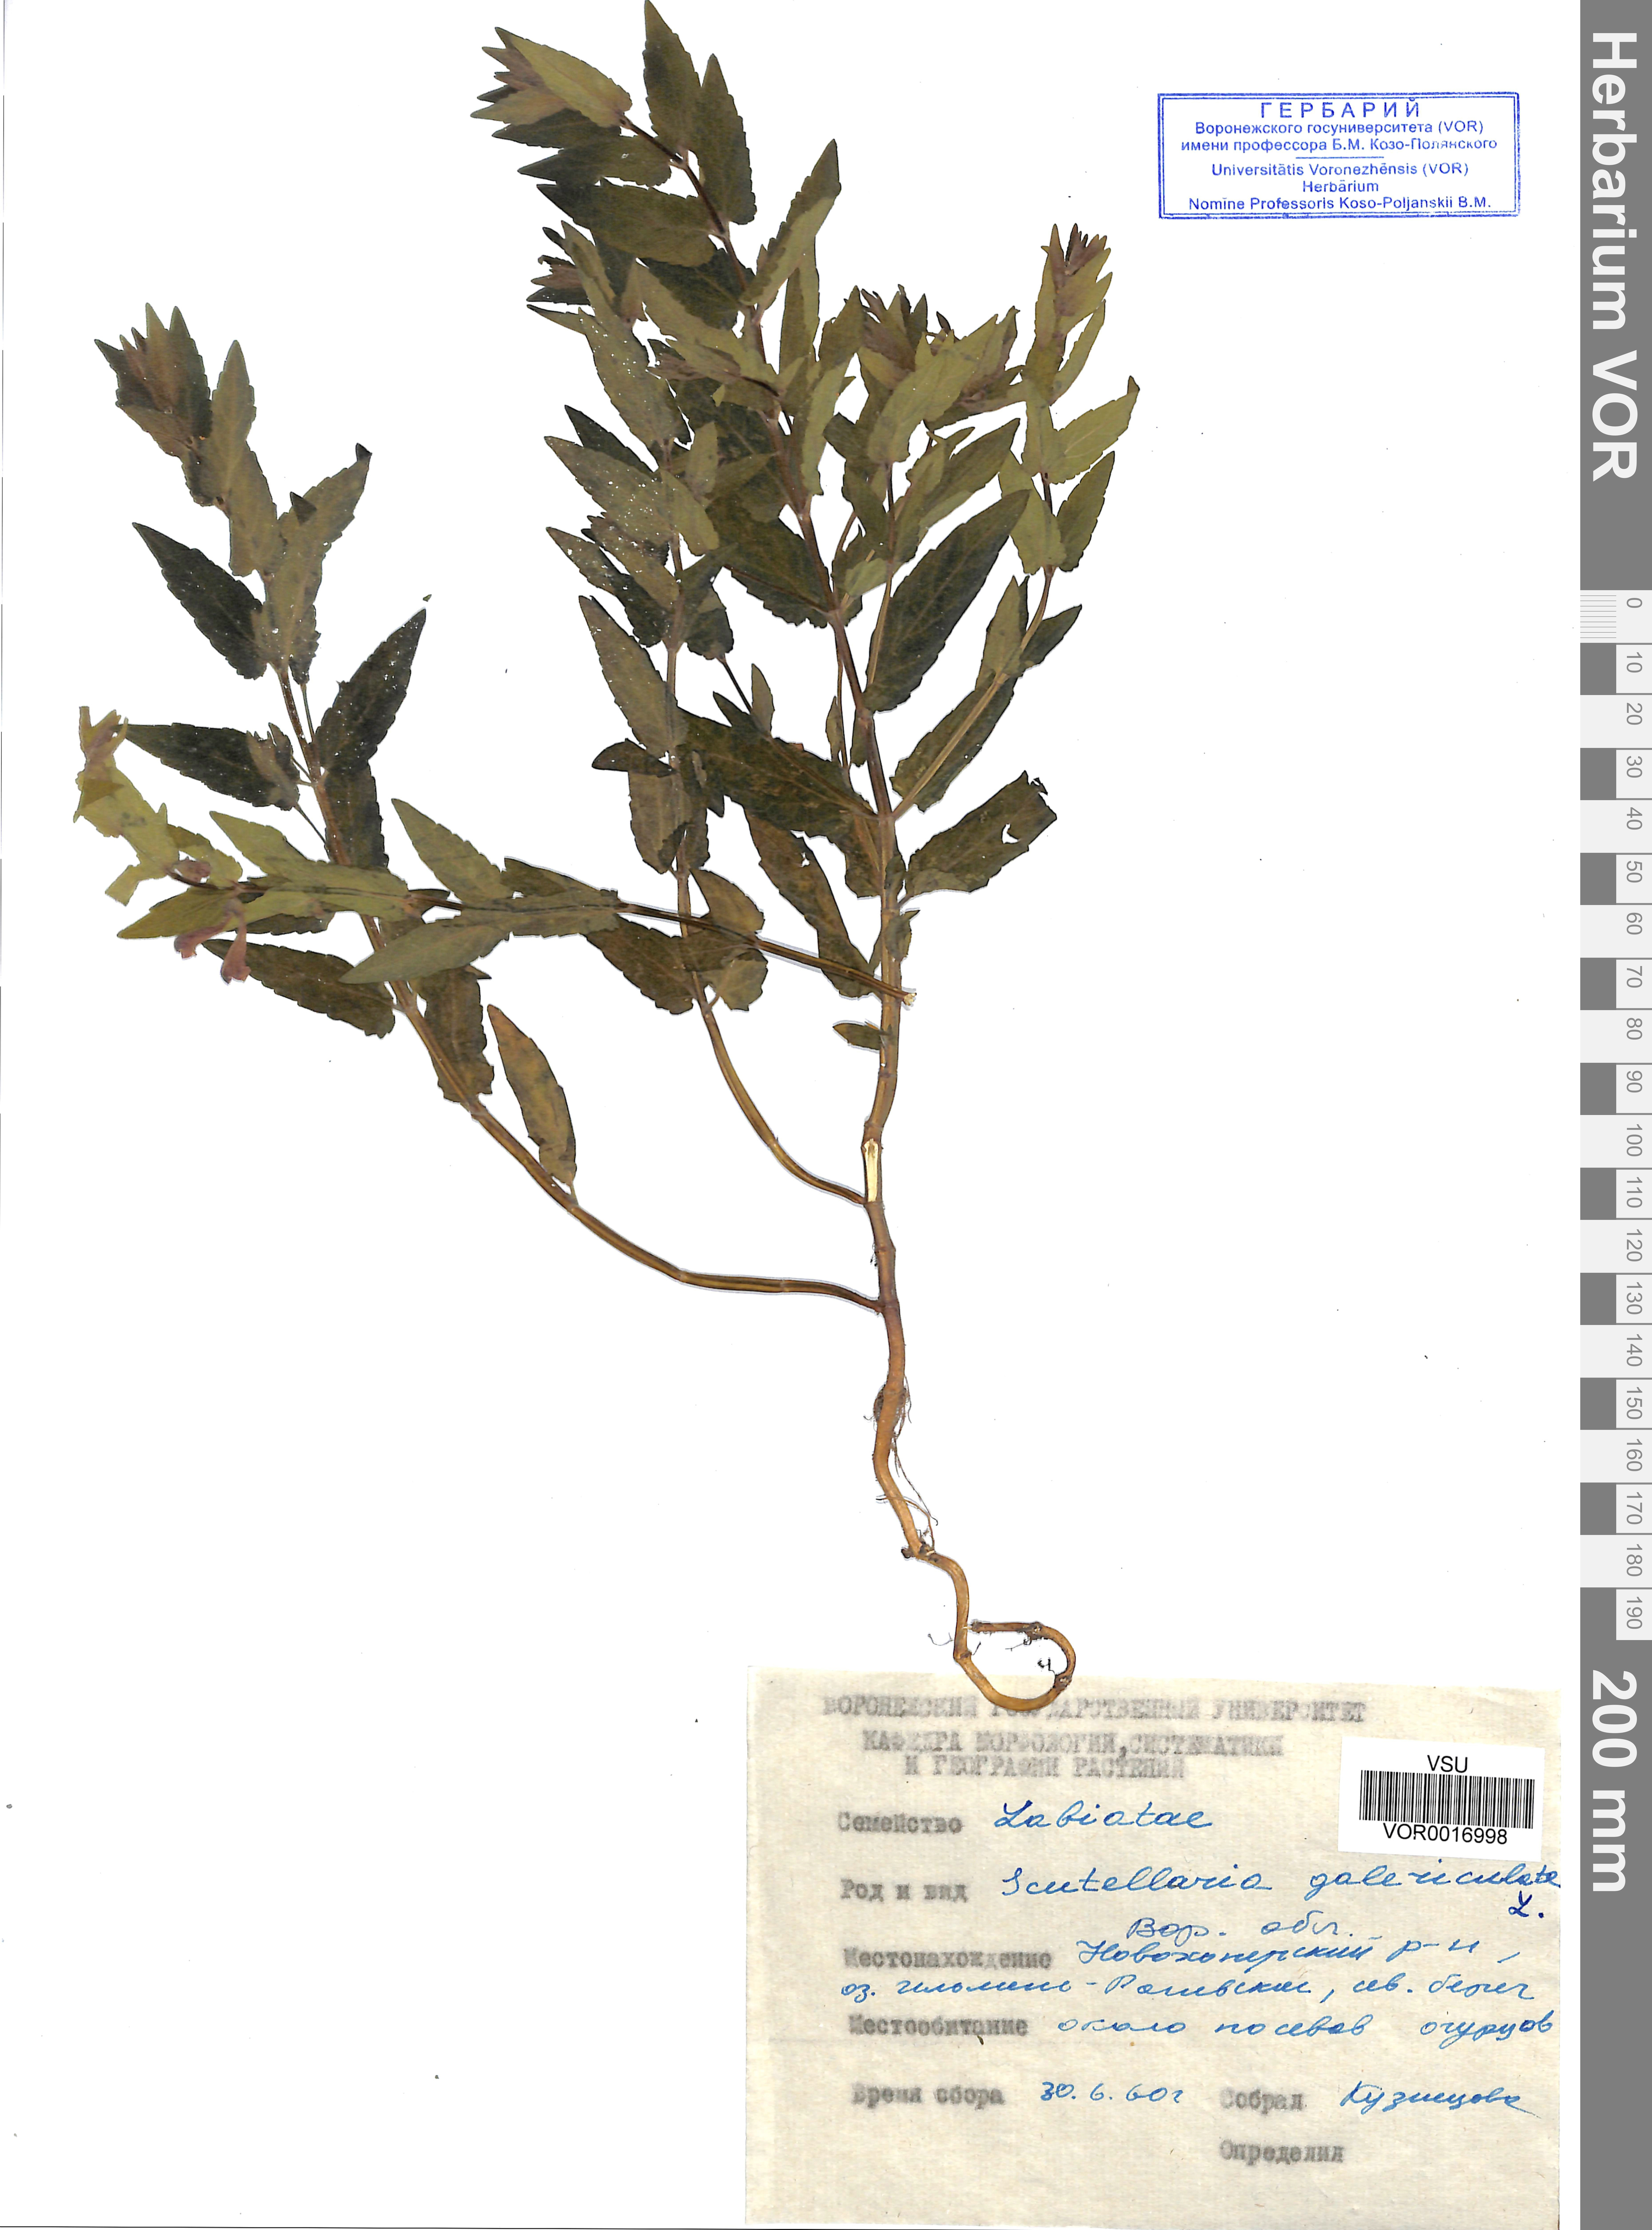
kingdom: Plantae
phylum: Tracheophyta
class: Magnoliopsida
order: Lamiales
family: Lamiaceae
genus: Scutellaria
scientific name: Scutellaria galericulata
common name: Skullcap
